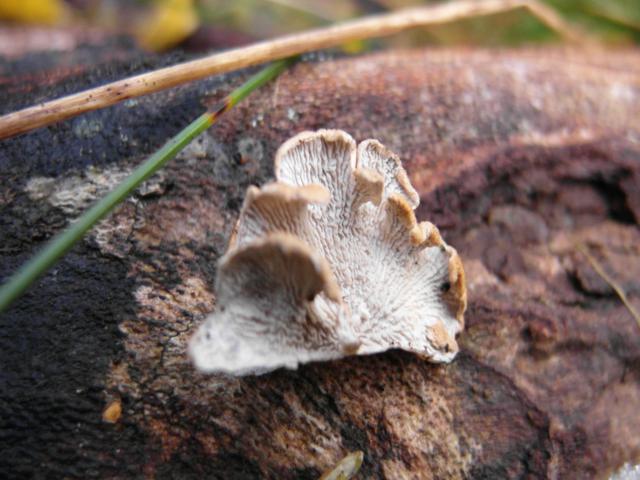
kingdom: Fungi
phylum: Basidiomycota
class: Agaricomycetes
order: Amylocorticiales
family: Amylocorticiaceae
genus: Plicaturopsis
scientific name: Plicaturopsis crispa
